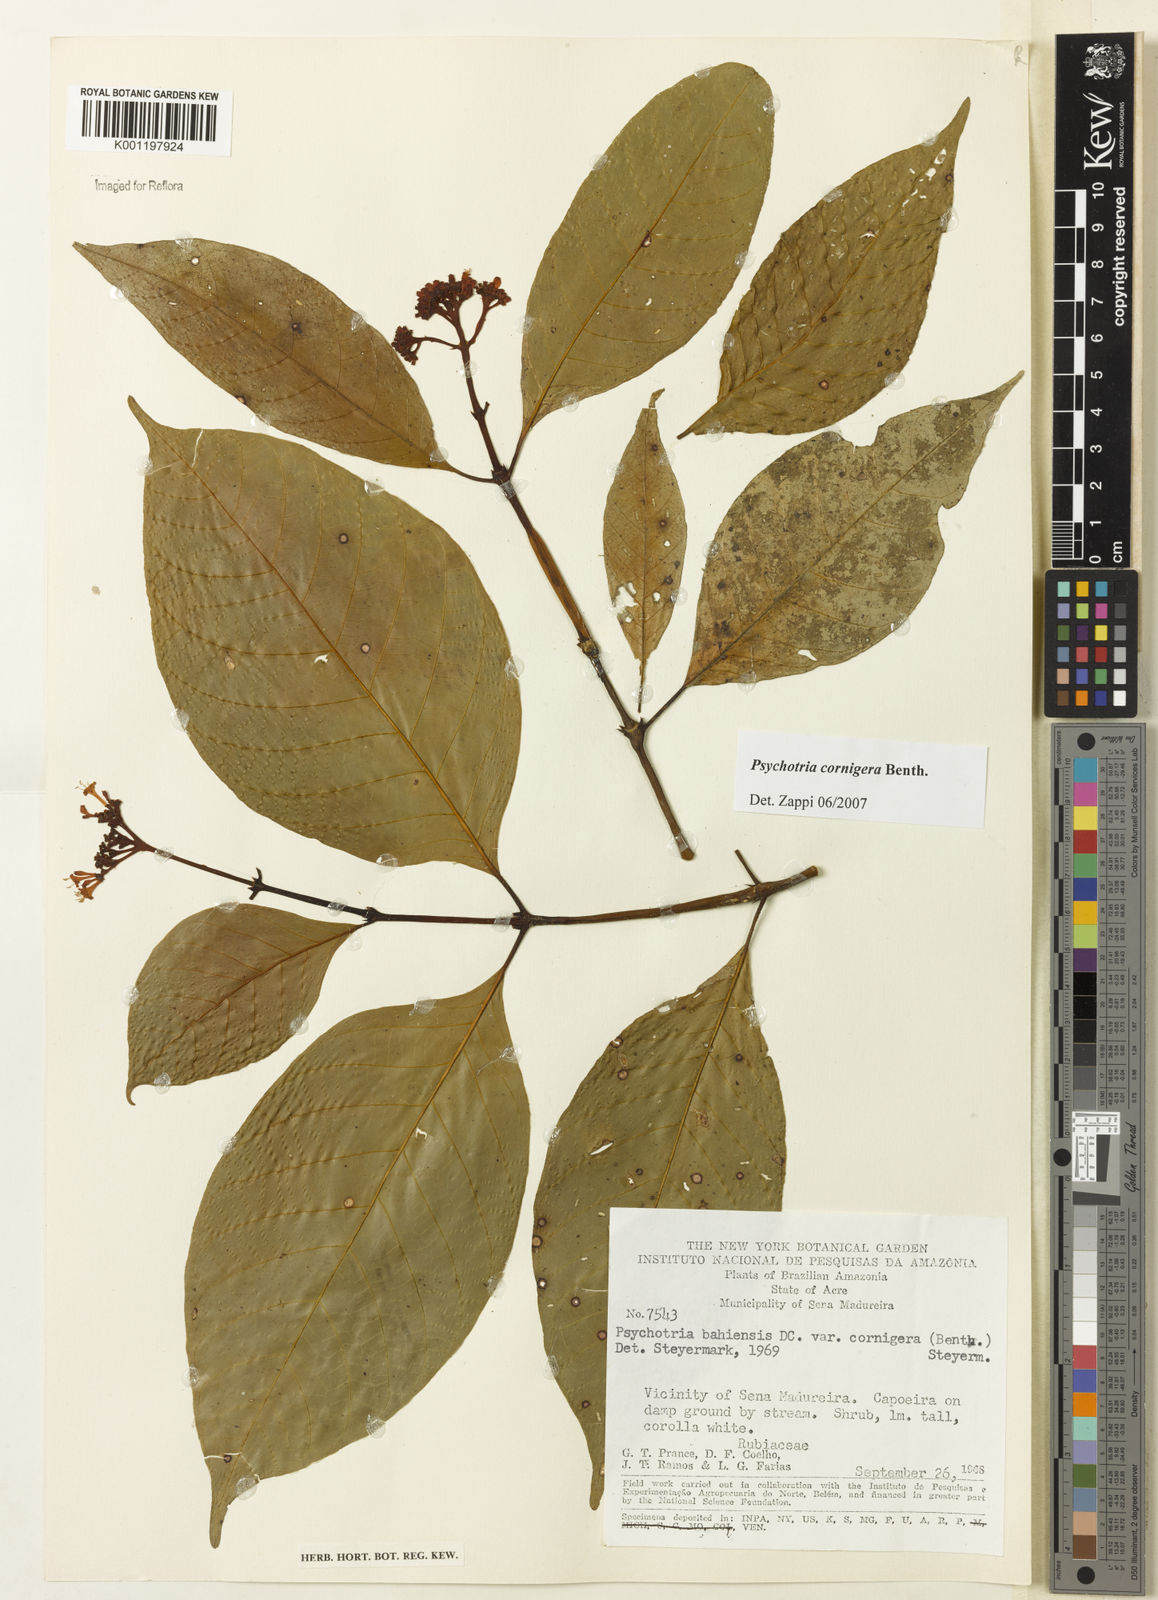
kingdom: Plantae
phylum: Tracheophyta
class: Magnoliopsida
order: Gentianales
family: Rubiaceae
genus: Psychotria
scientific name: Psychotria bahiensis
